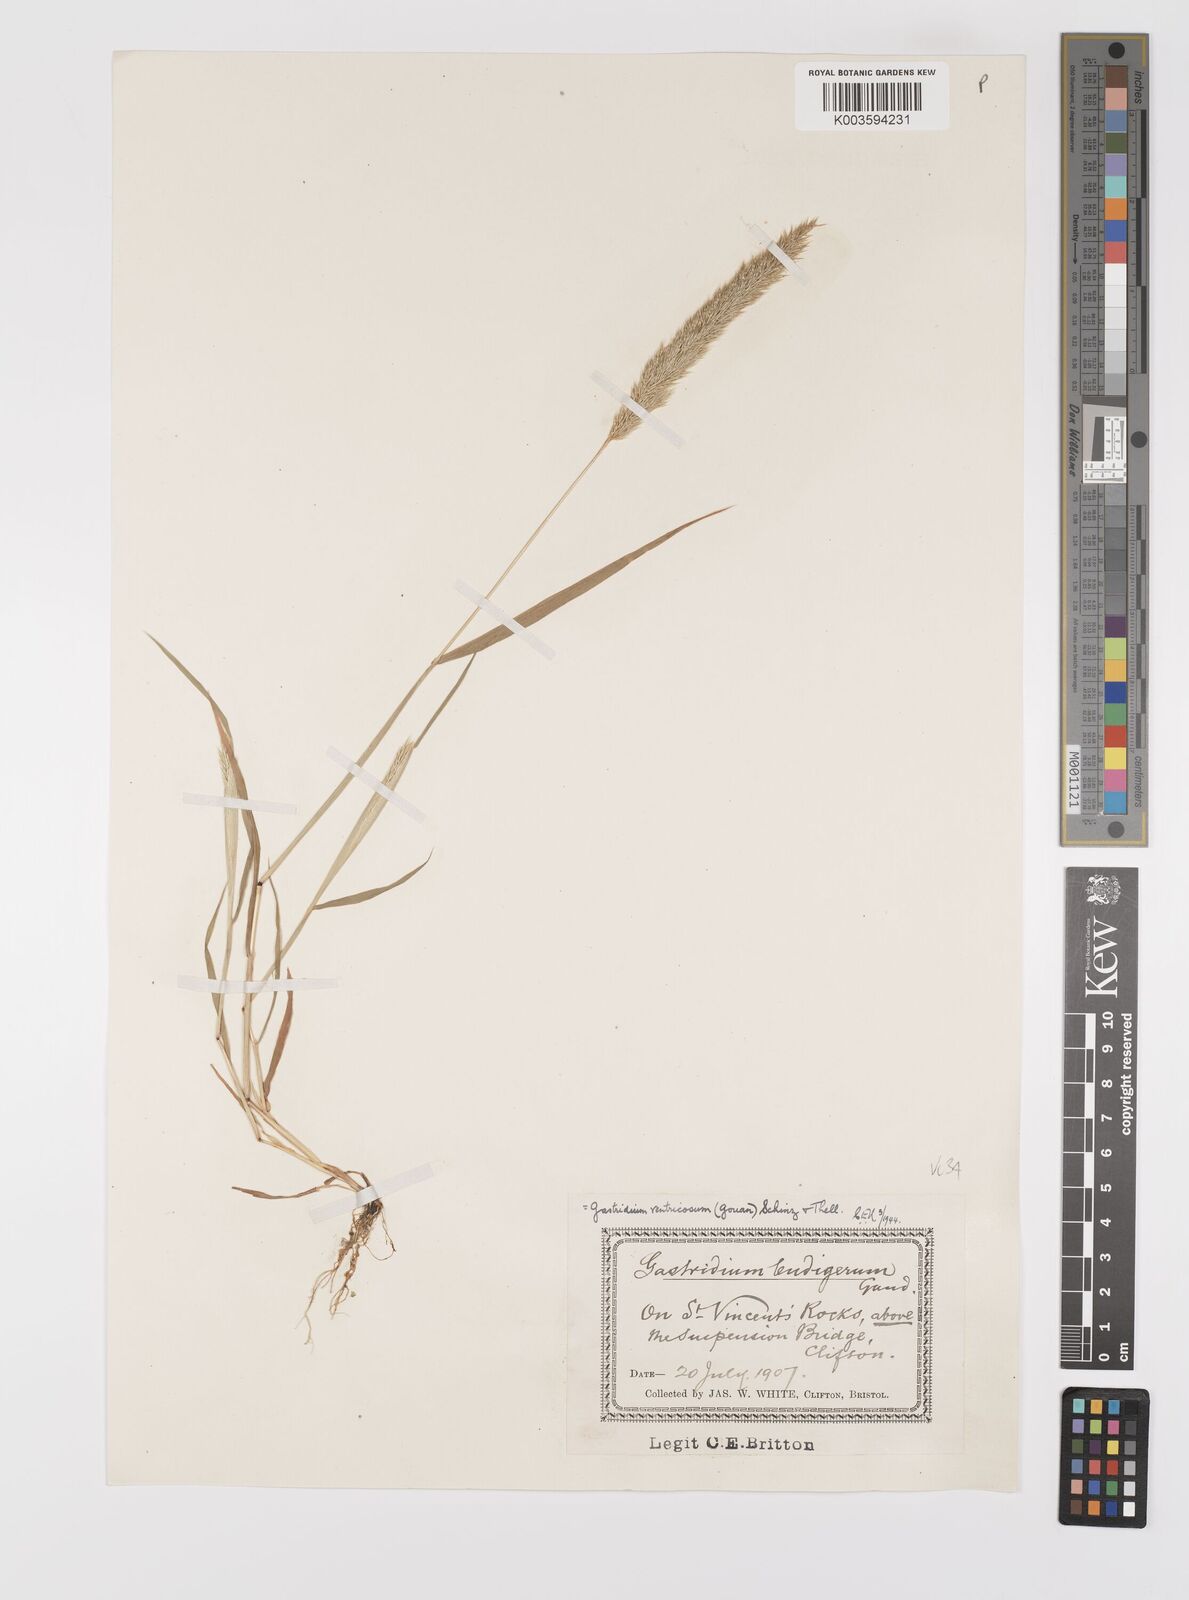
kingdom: Plantae
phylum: Tracheophyta
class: Liliopsida
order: Poales
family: Poaceae
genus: Gastridium
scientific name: Gastridium ventricosum
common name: Nit-grass
